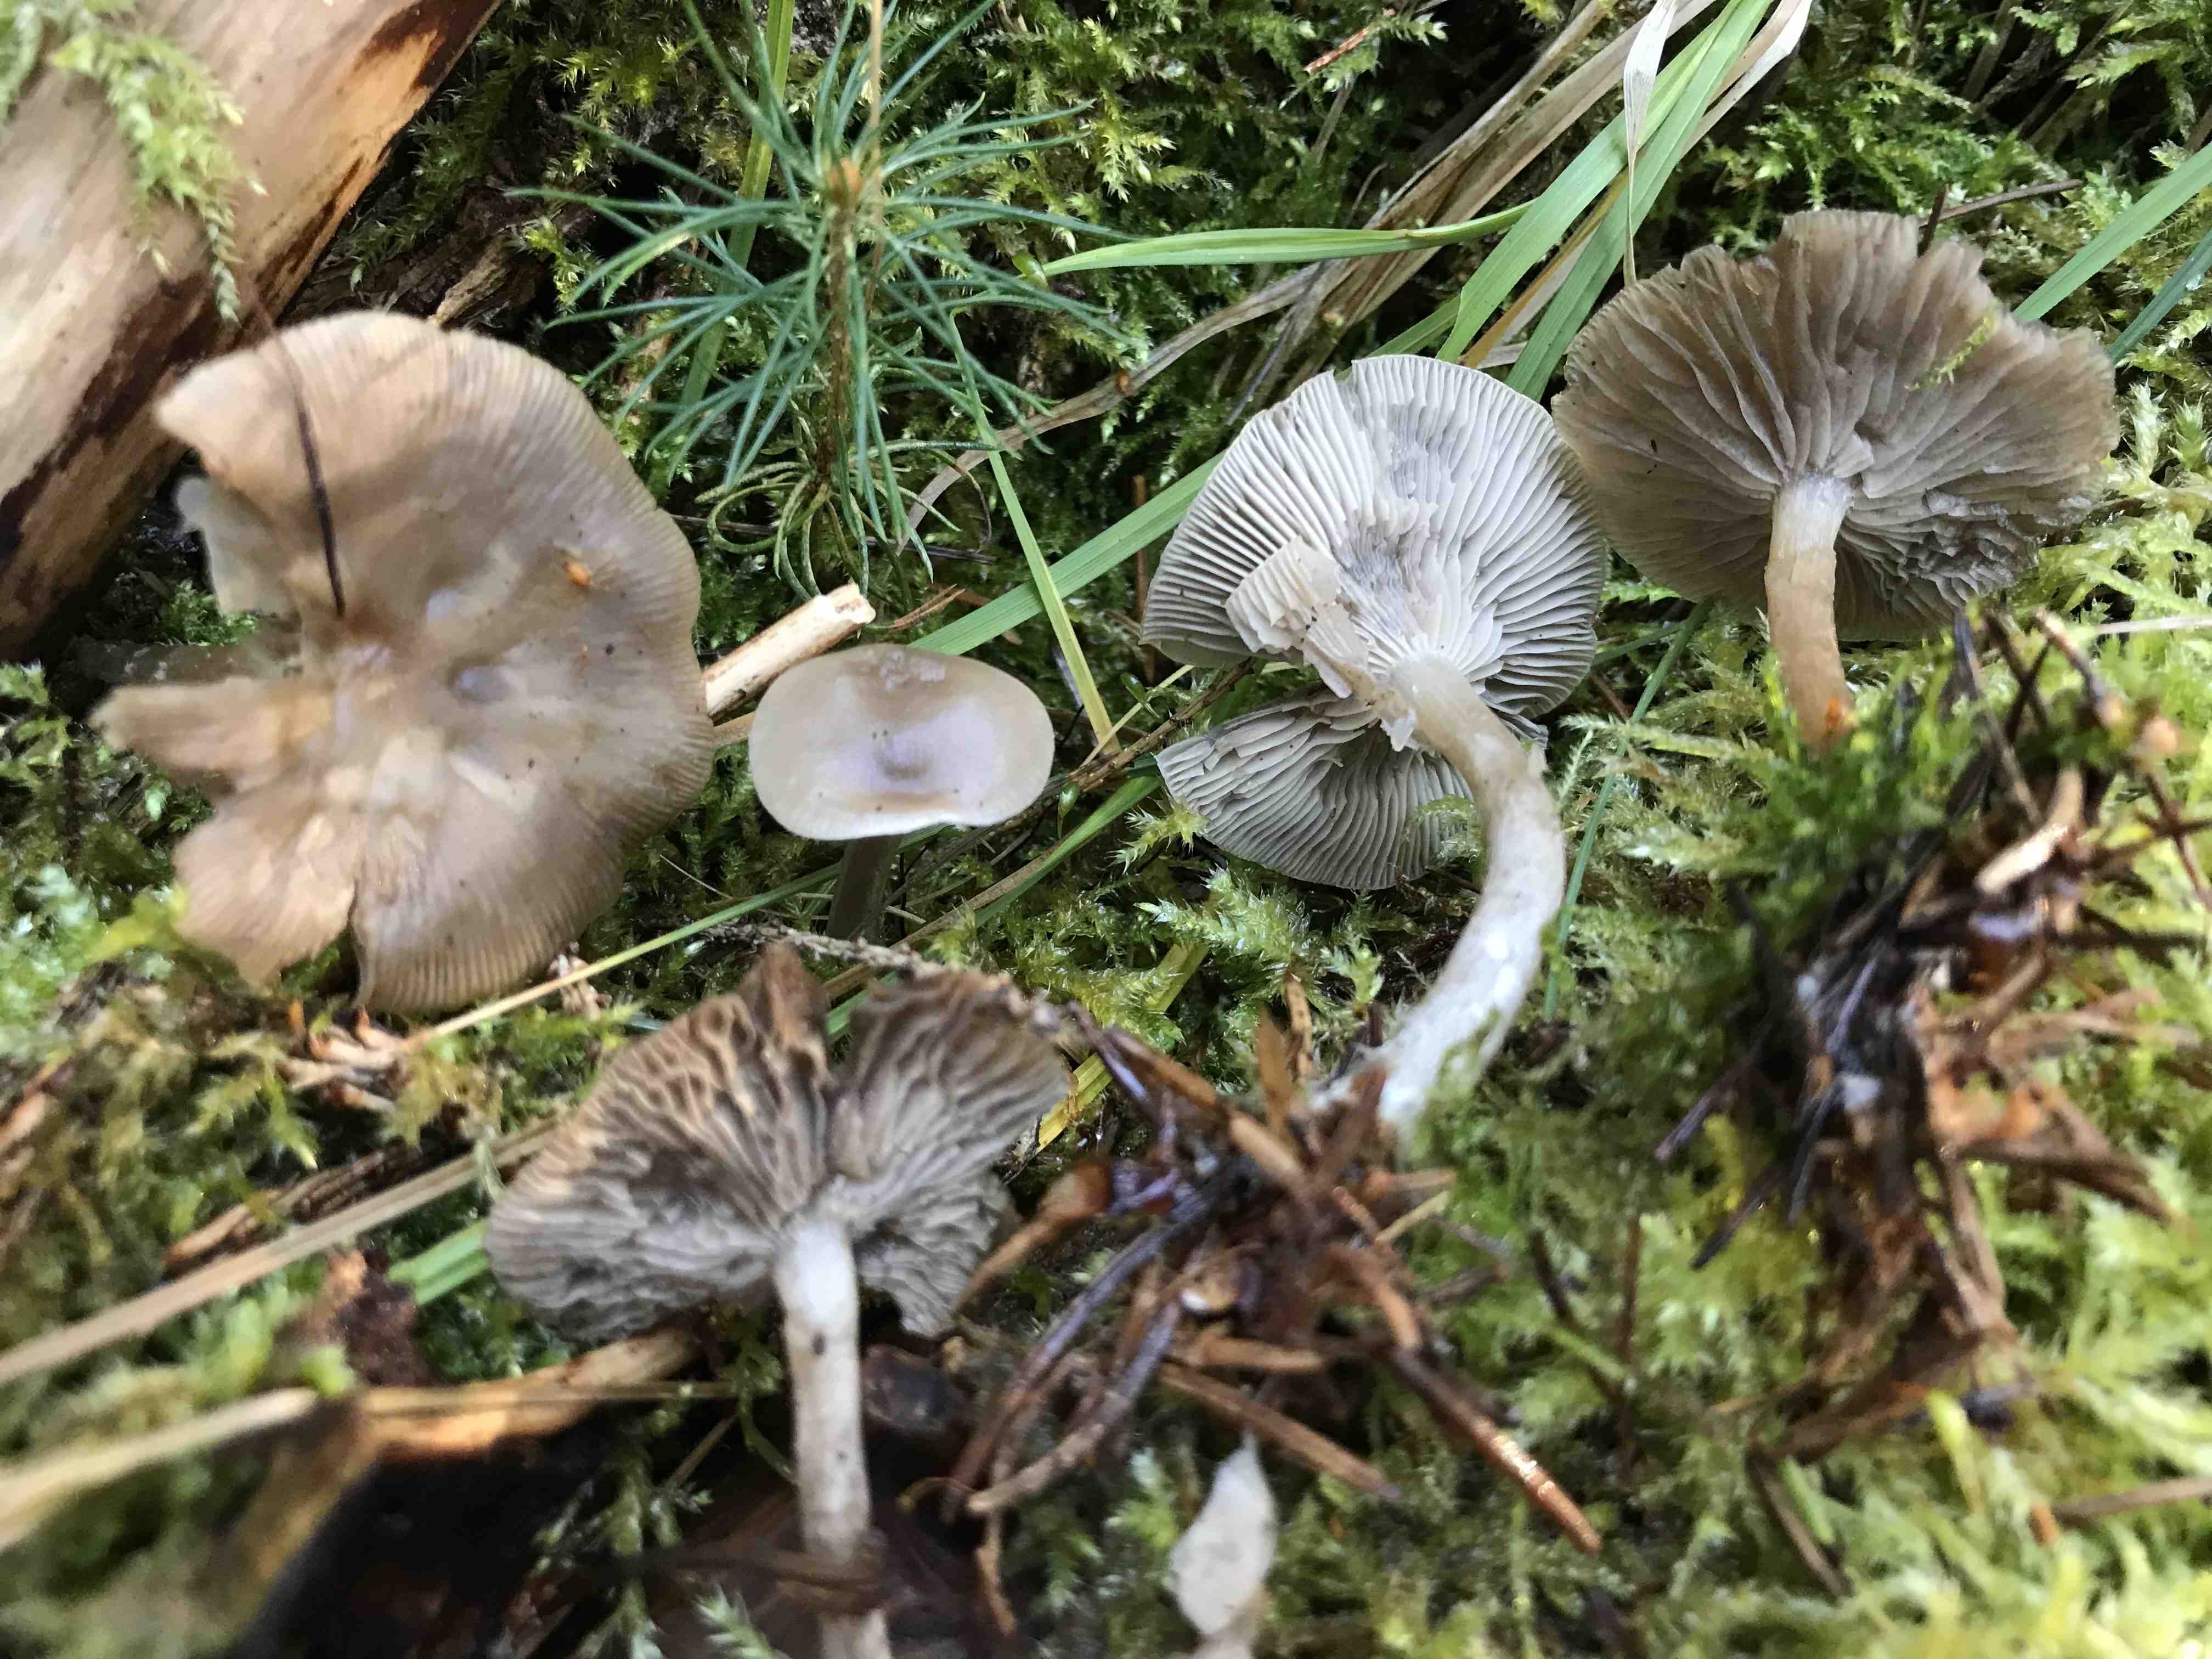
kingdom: Fungi
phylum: Basidiomycota
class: Agaricomycetes
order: Agaricales
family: Tricholomataceae
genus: Clitocybe
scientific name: Clitocybe
